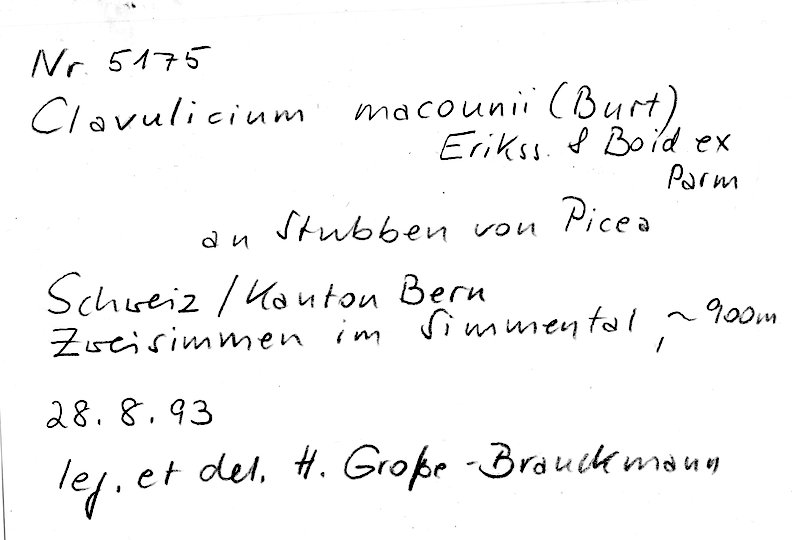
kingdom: Fungi
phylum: Basidiomycota
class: Agaricomycetes
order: Cantharellales
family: Clavulinaceae
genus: Clavulicium
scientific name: Clavulicium macounii
